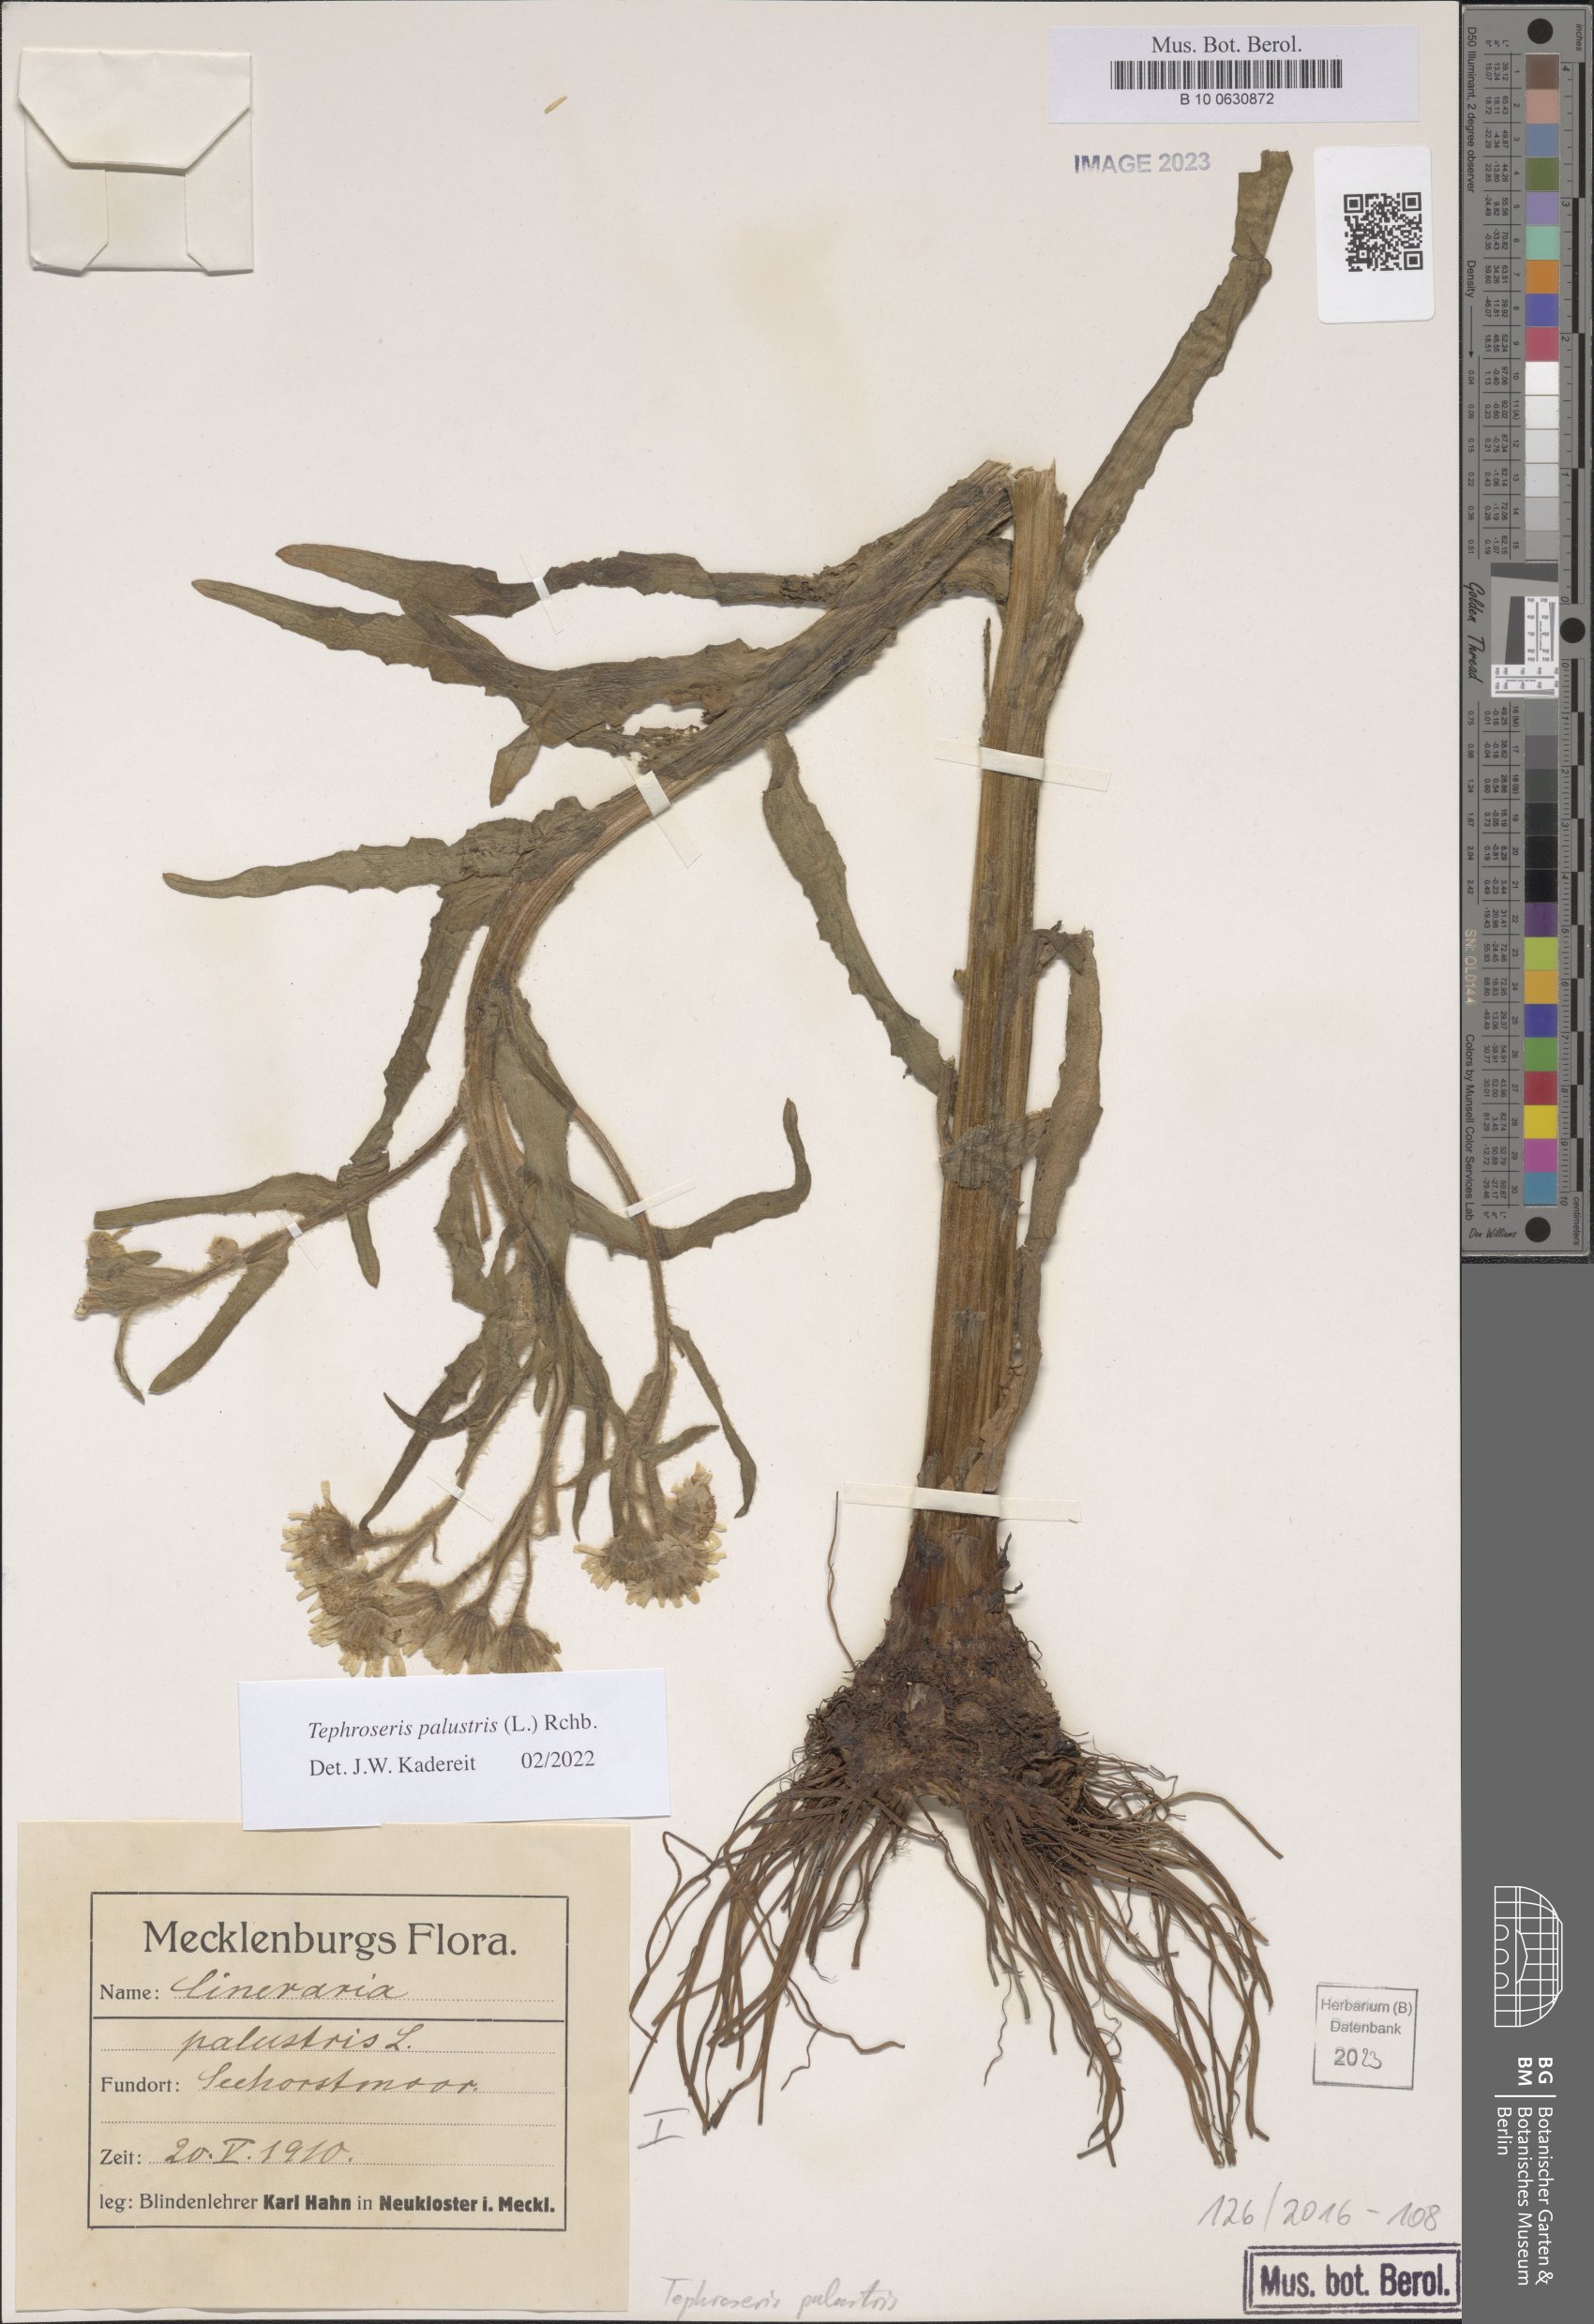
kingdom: Plantae
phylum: Tracheophyta
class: Magnoliopsida
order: Asterales
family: Asteraceae
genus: Tephroseris
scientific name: Tephroseris palustris
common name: Marsh fleawort
